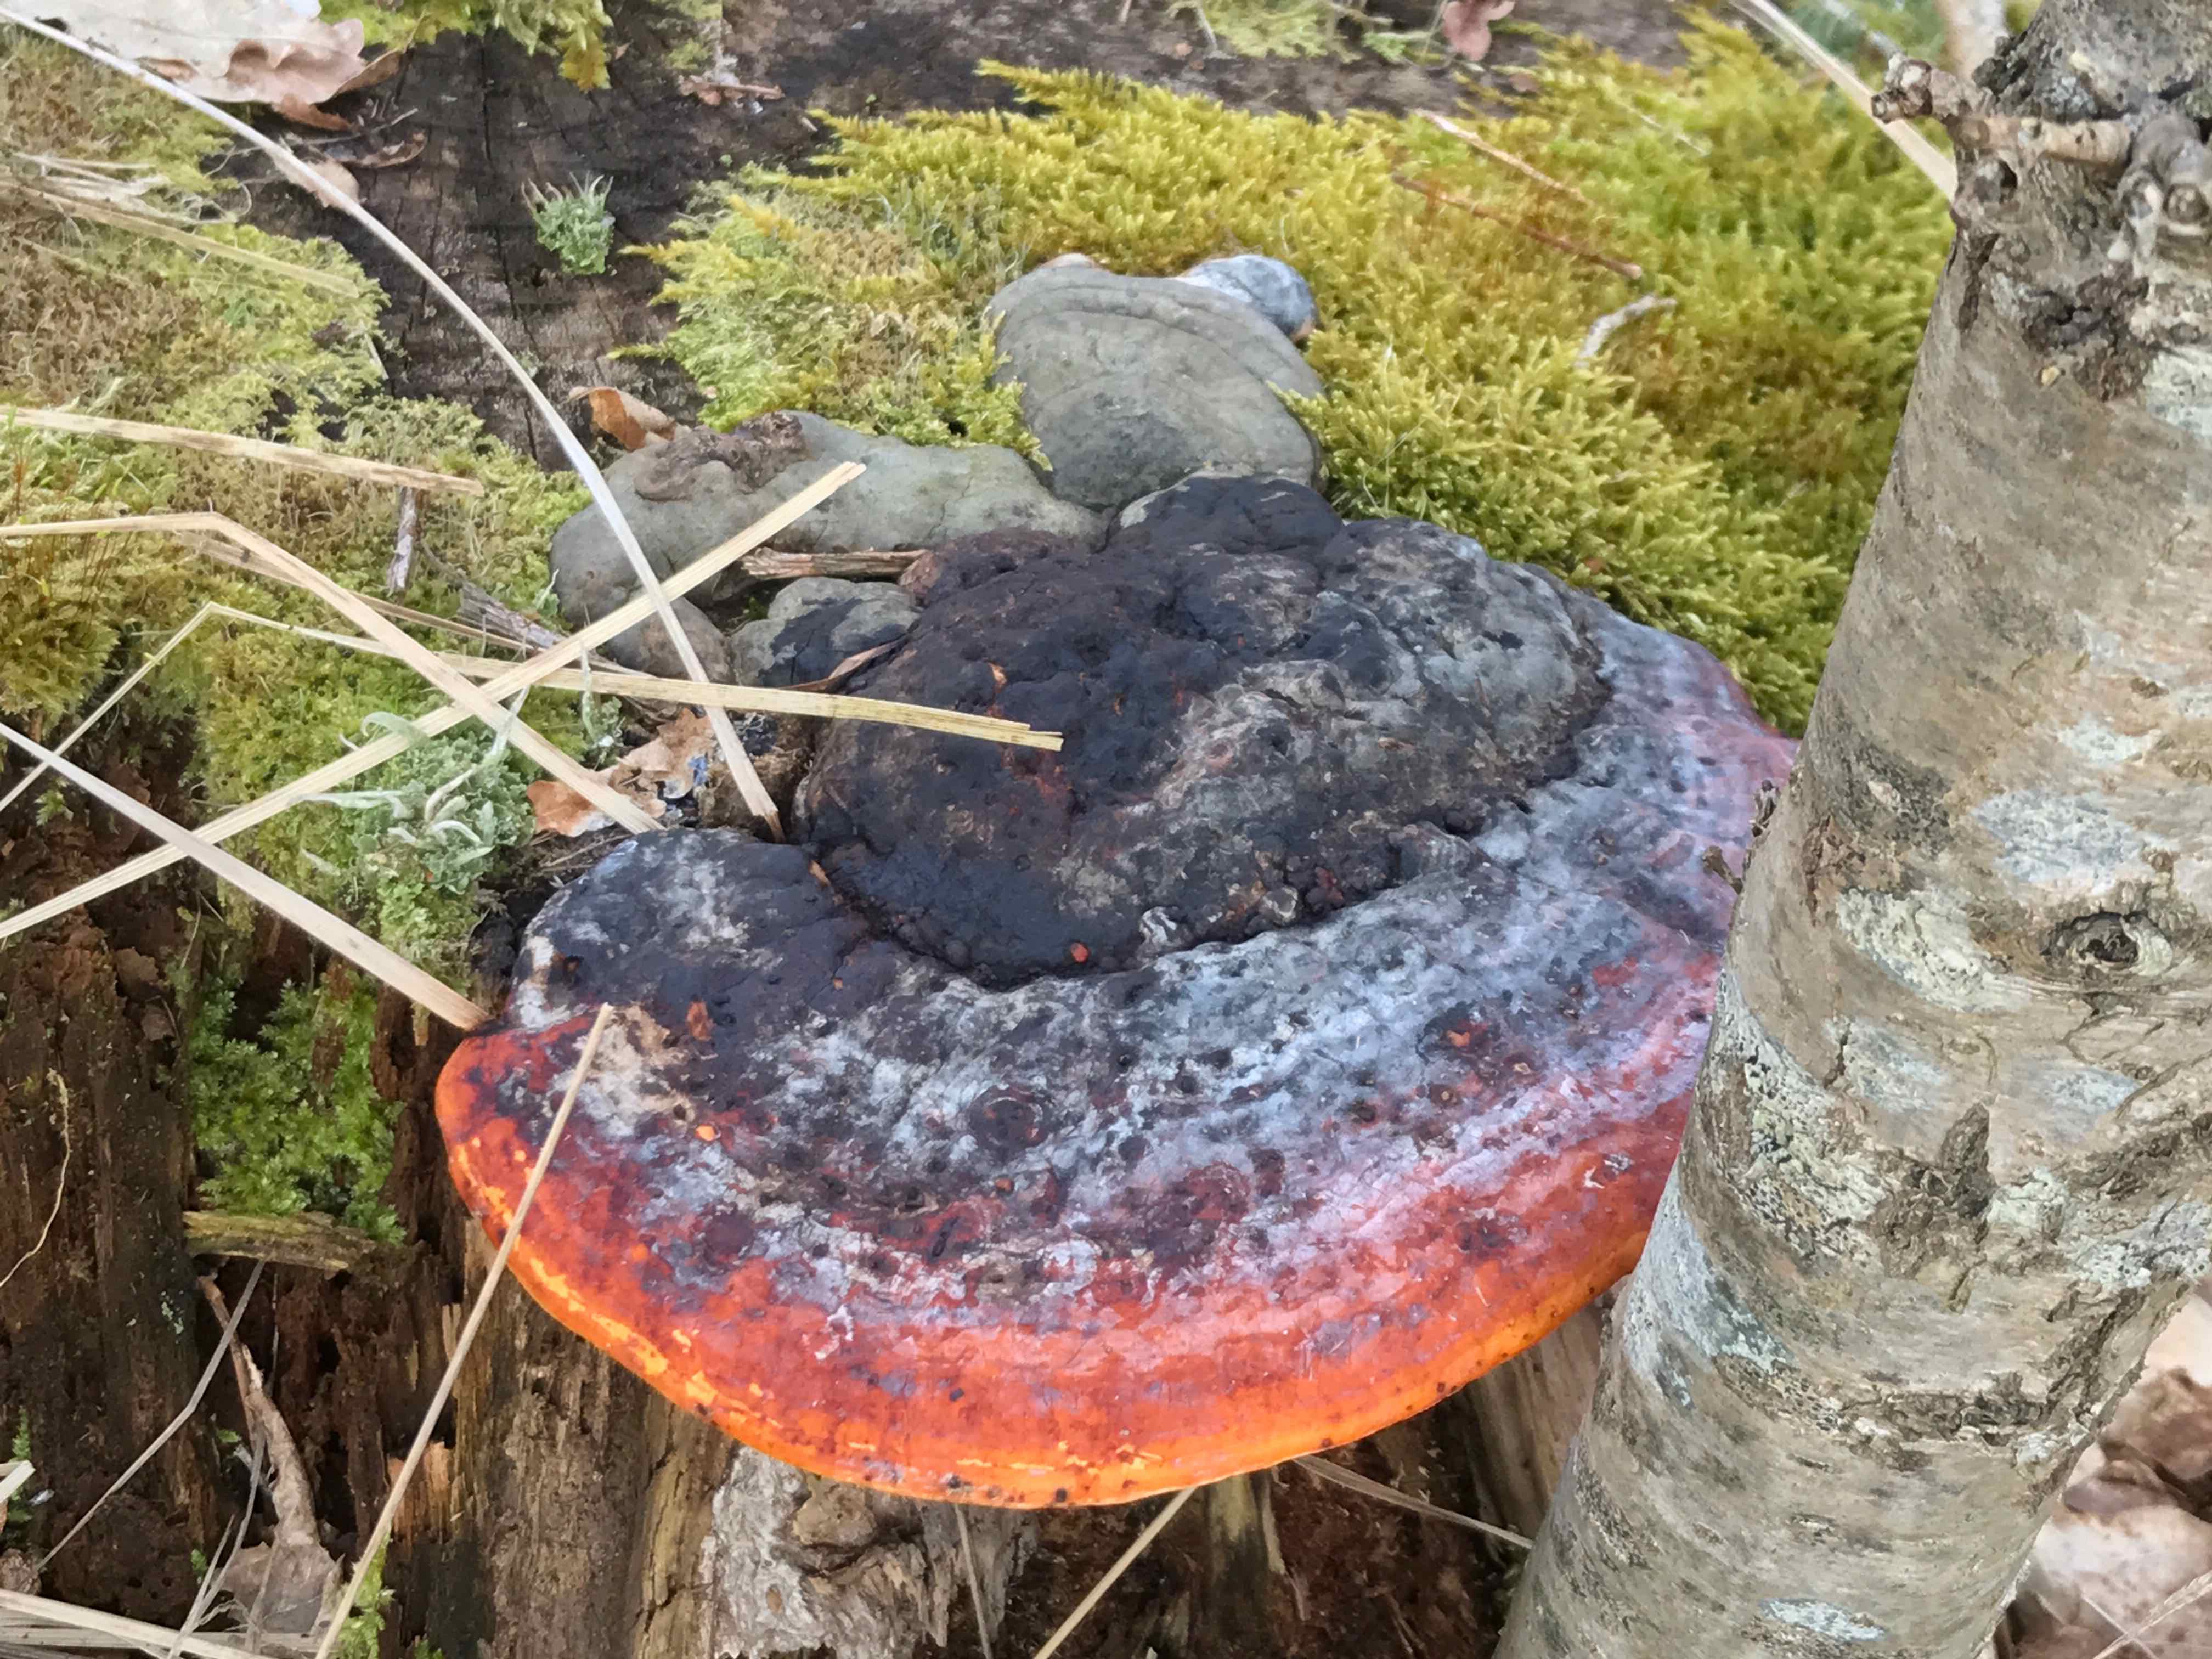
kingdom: Fungi
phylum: Basidiomycota
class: Agaricomycetes
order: Polyporales
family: Fomitopsidaceae
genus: Fomitopsis
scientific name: Fomitopsis pinicola
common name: randbæltet hovporesvamp
